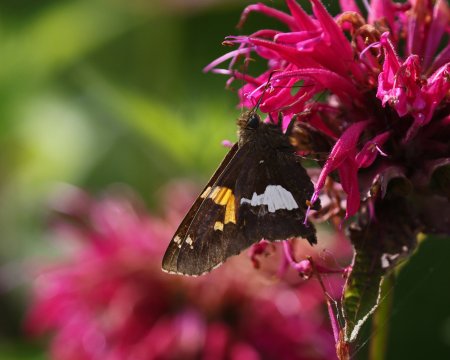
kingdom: Animalia
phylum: Arthropoda
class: Insecta
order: Lepidoptera
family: Hesperiidae
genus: Epargyreus
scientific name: Epargyreus clarus
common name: Silver-spotted Skipper
